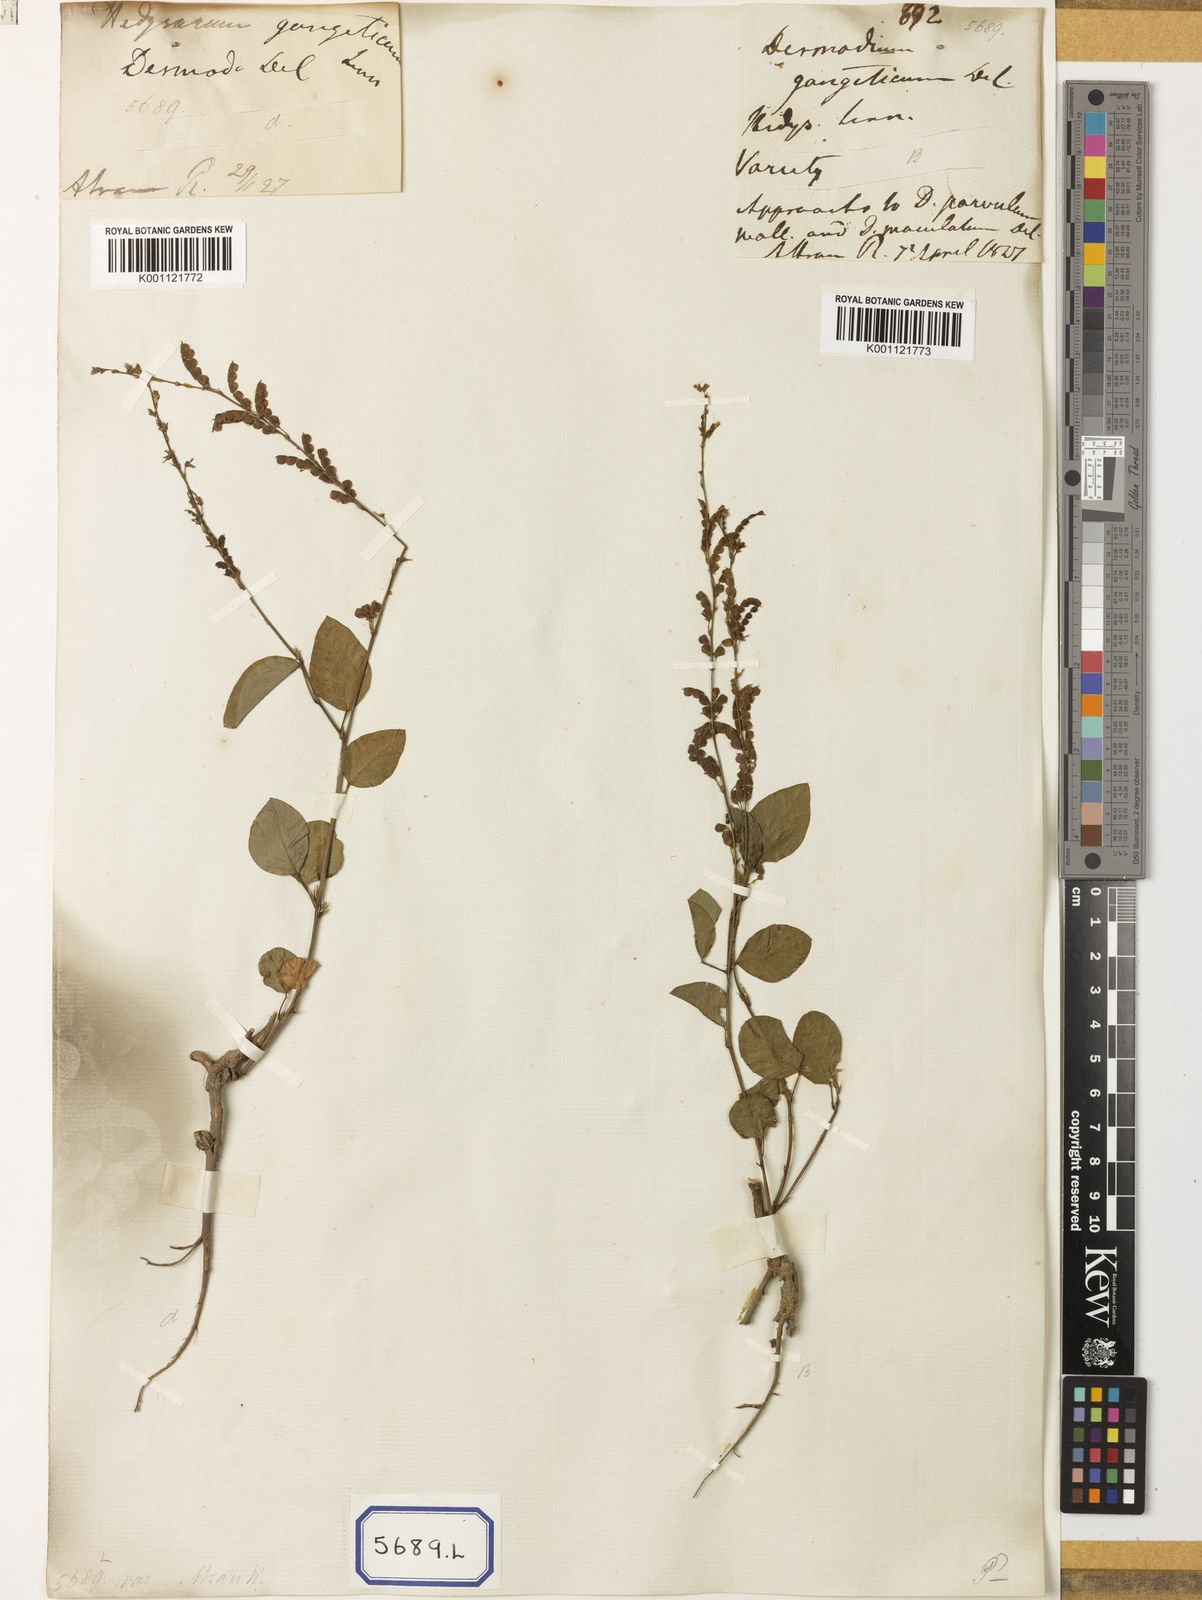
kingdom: Plantae
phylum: Tracheophyta
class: Magnoliopsida
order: Fabales
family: Fabaceae
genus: Pleurolobus
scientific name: Pleurolobus gangeticus
